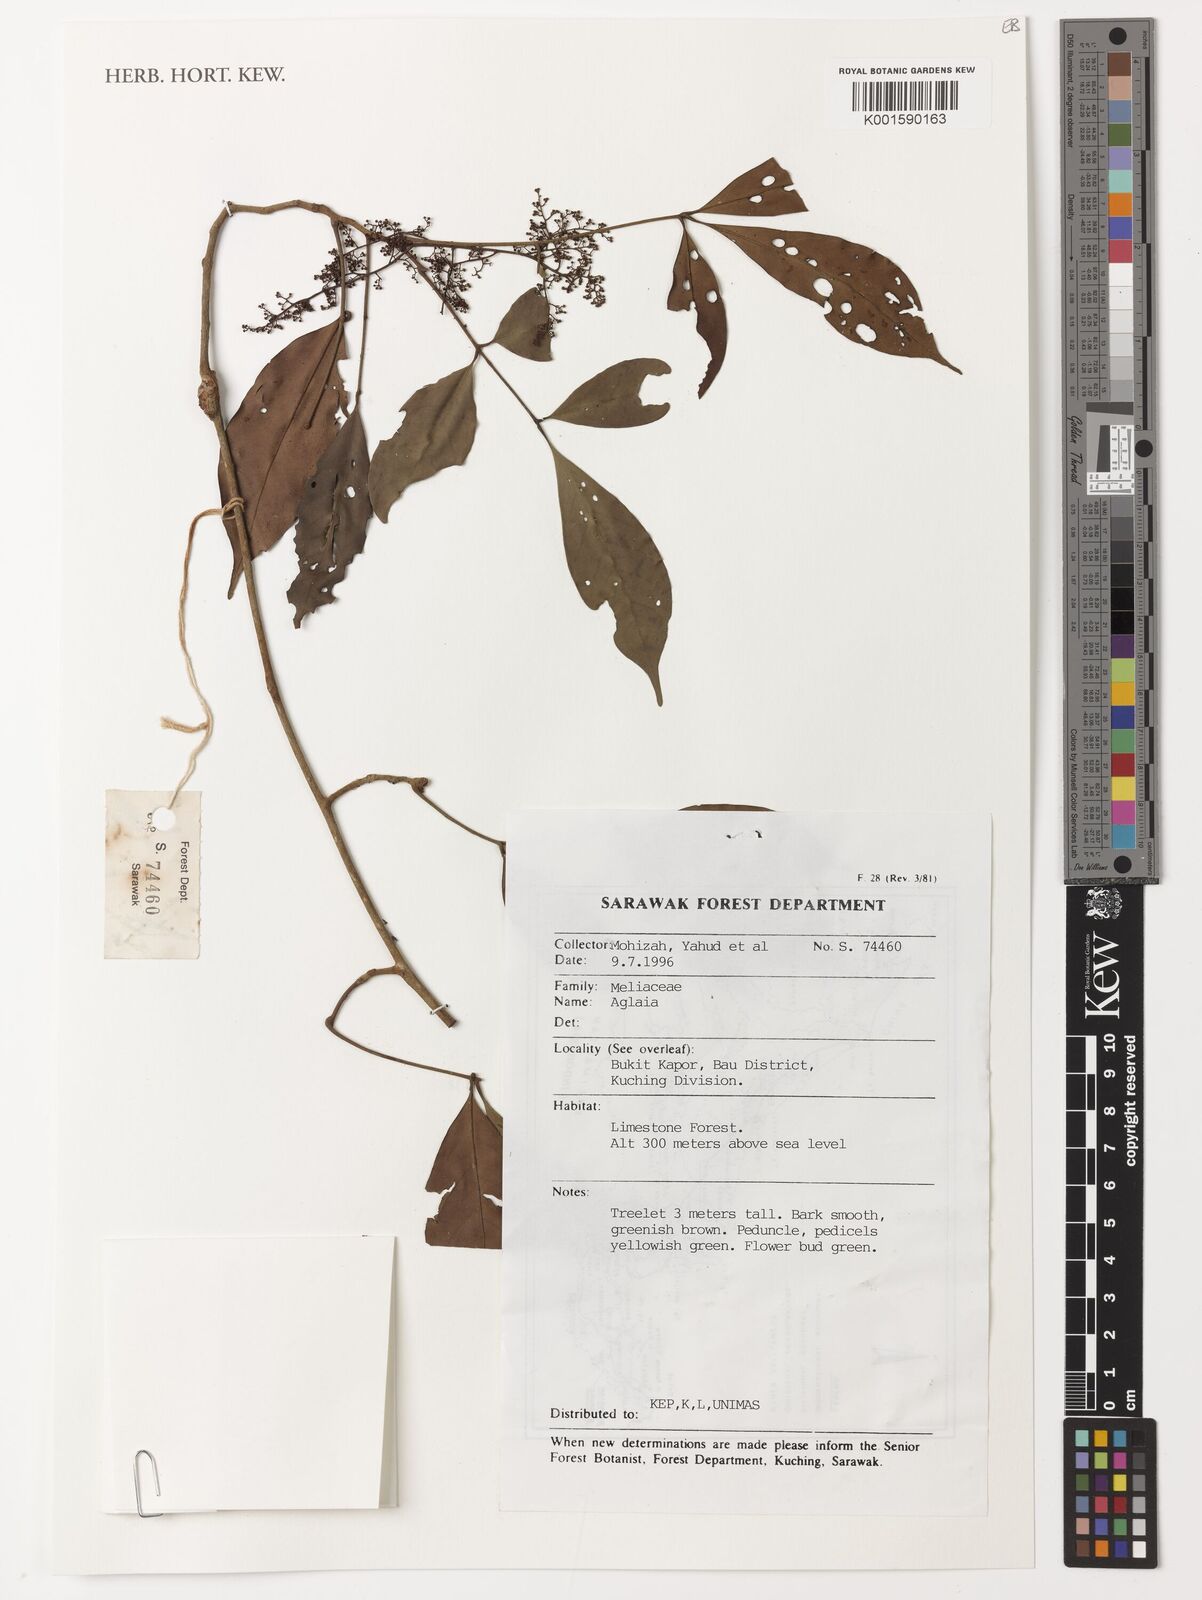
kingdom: Plantae
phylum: Tracheophyta
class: Magnoliopsida
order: Sapindales
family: Meliaceae
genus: Aglaia
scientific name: Aglaia
